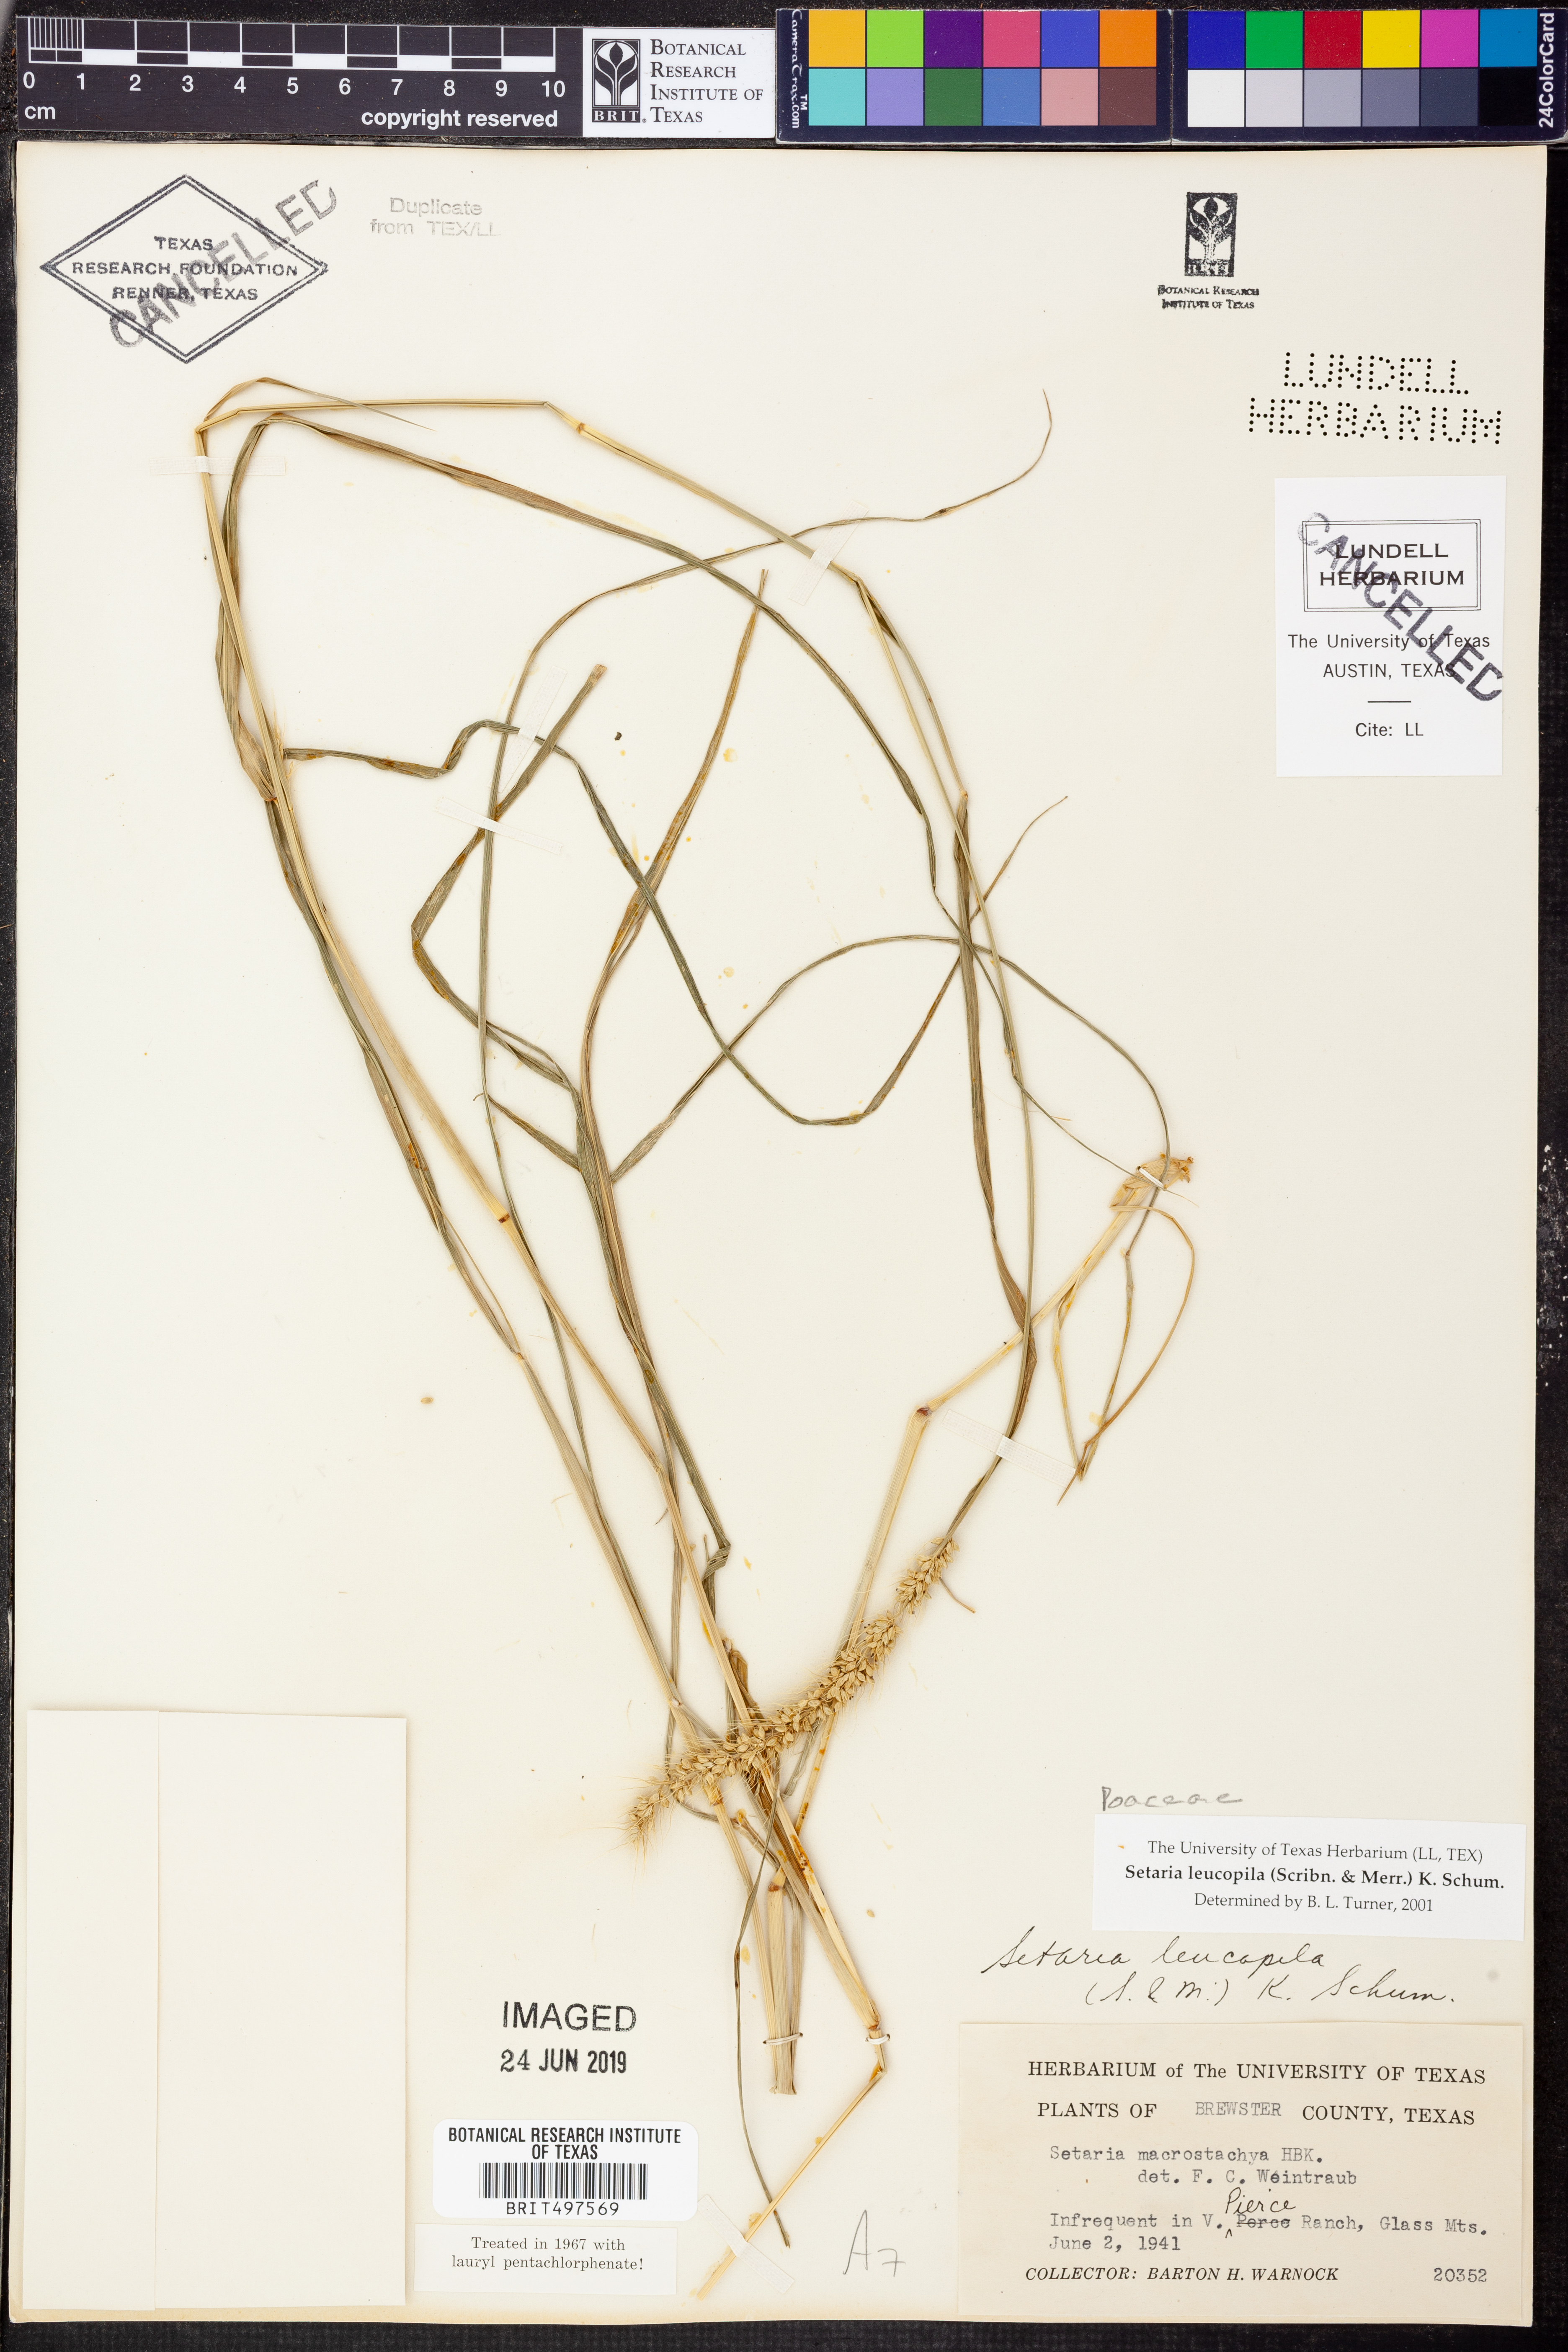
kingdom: Plantae
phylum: Tracheophyta
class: Liliopsida
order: Poales
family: Poaceae
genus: Setaria
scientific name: Setaria leucopila
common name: Plains bristle grass
